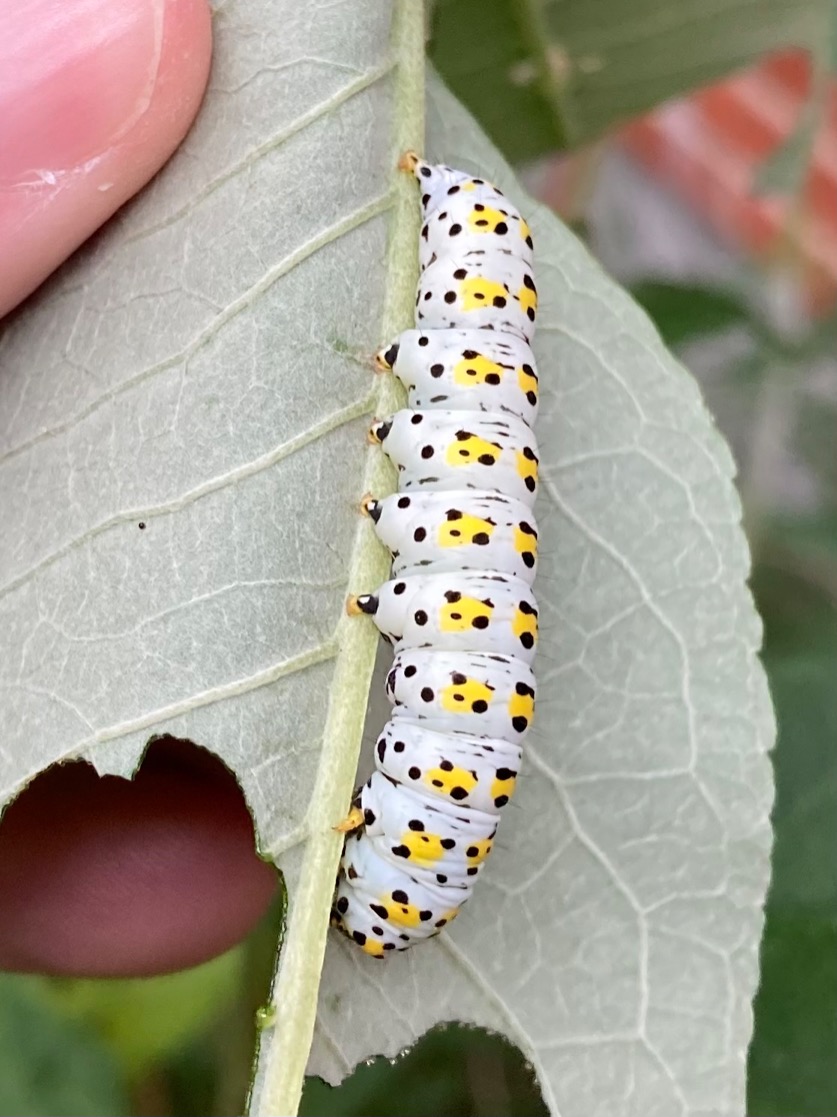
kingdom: Animalia
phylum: Arthropoda
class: Insecta
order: Lepidoptera
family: Noctuidae
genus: Cucullia
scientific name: Cucullia verbasci
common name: Filtbladet kongelys-hætteugle
